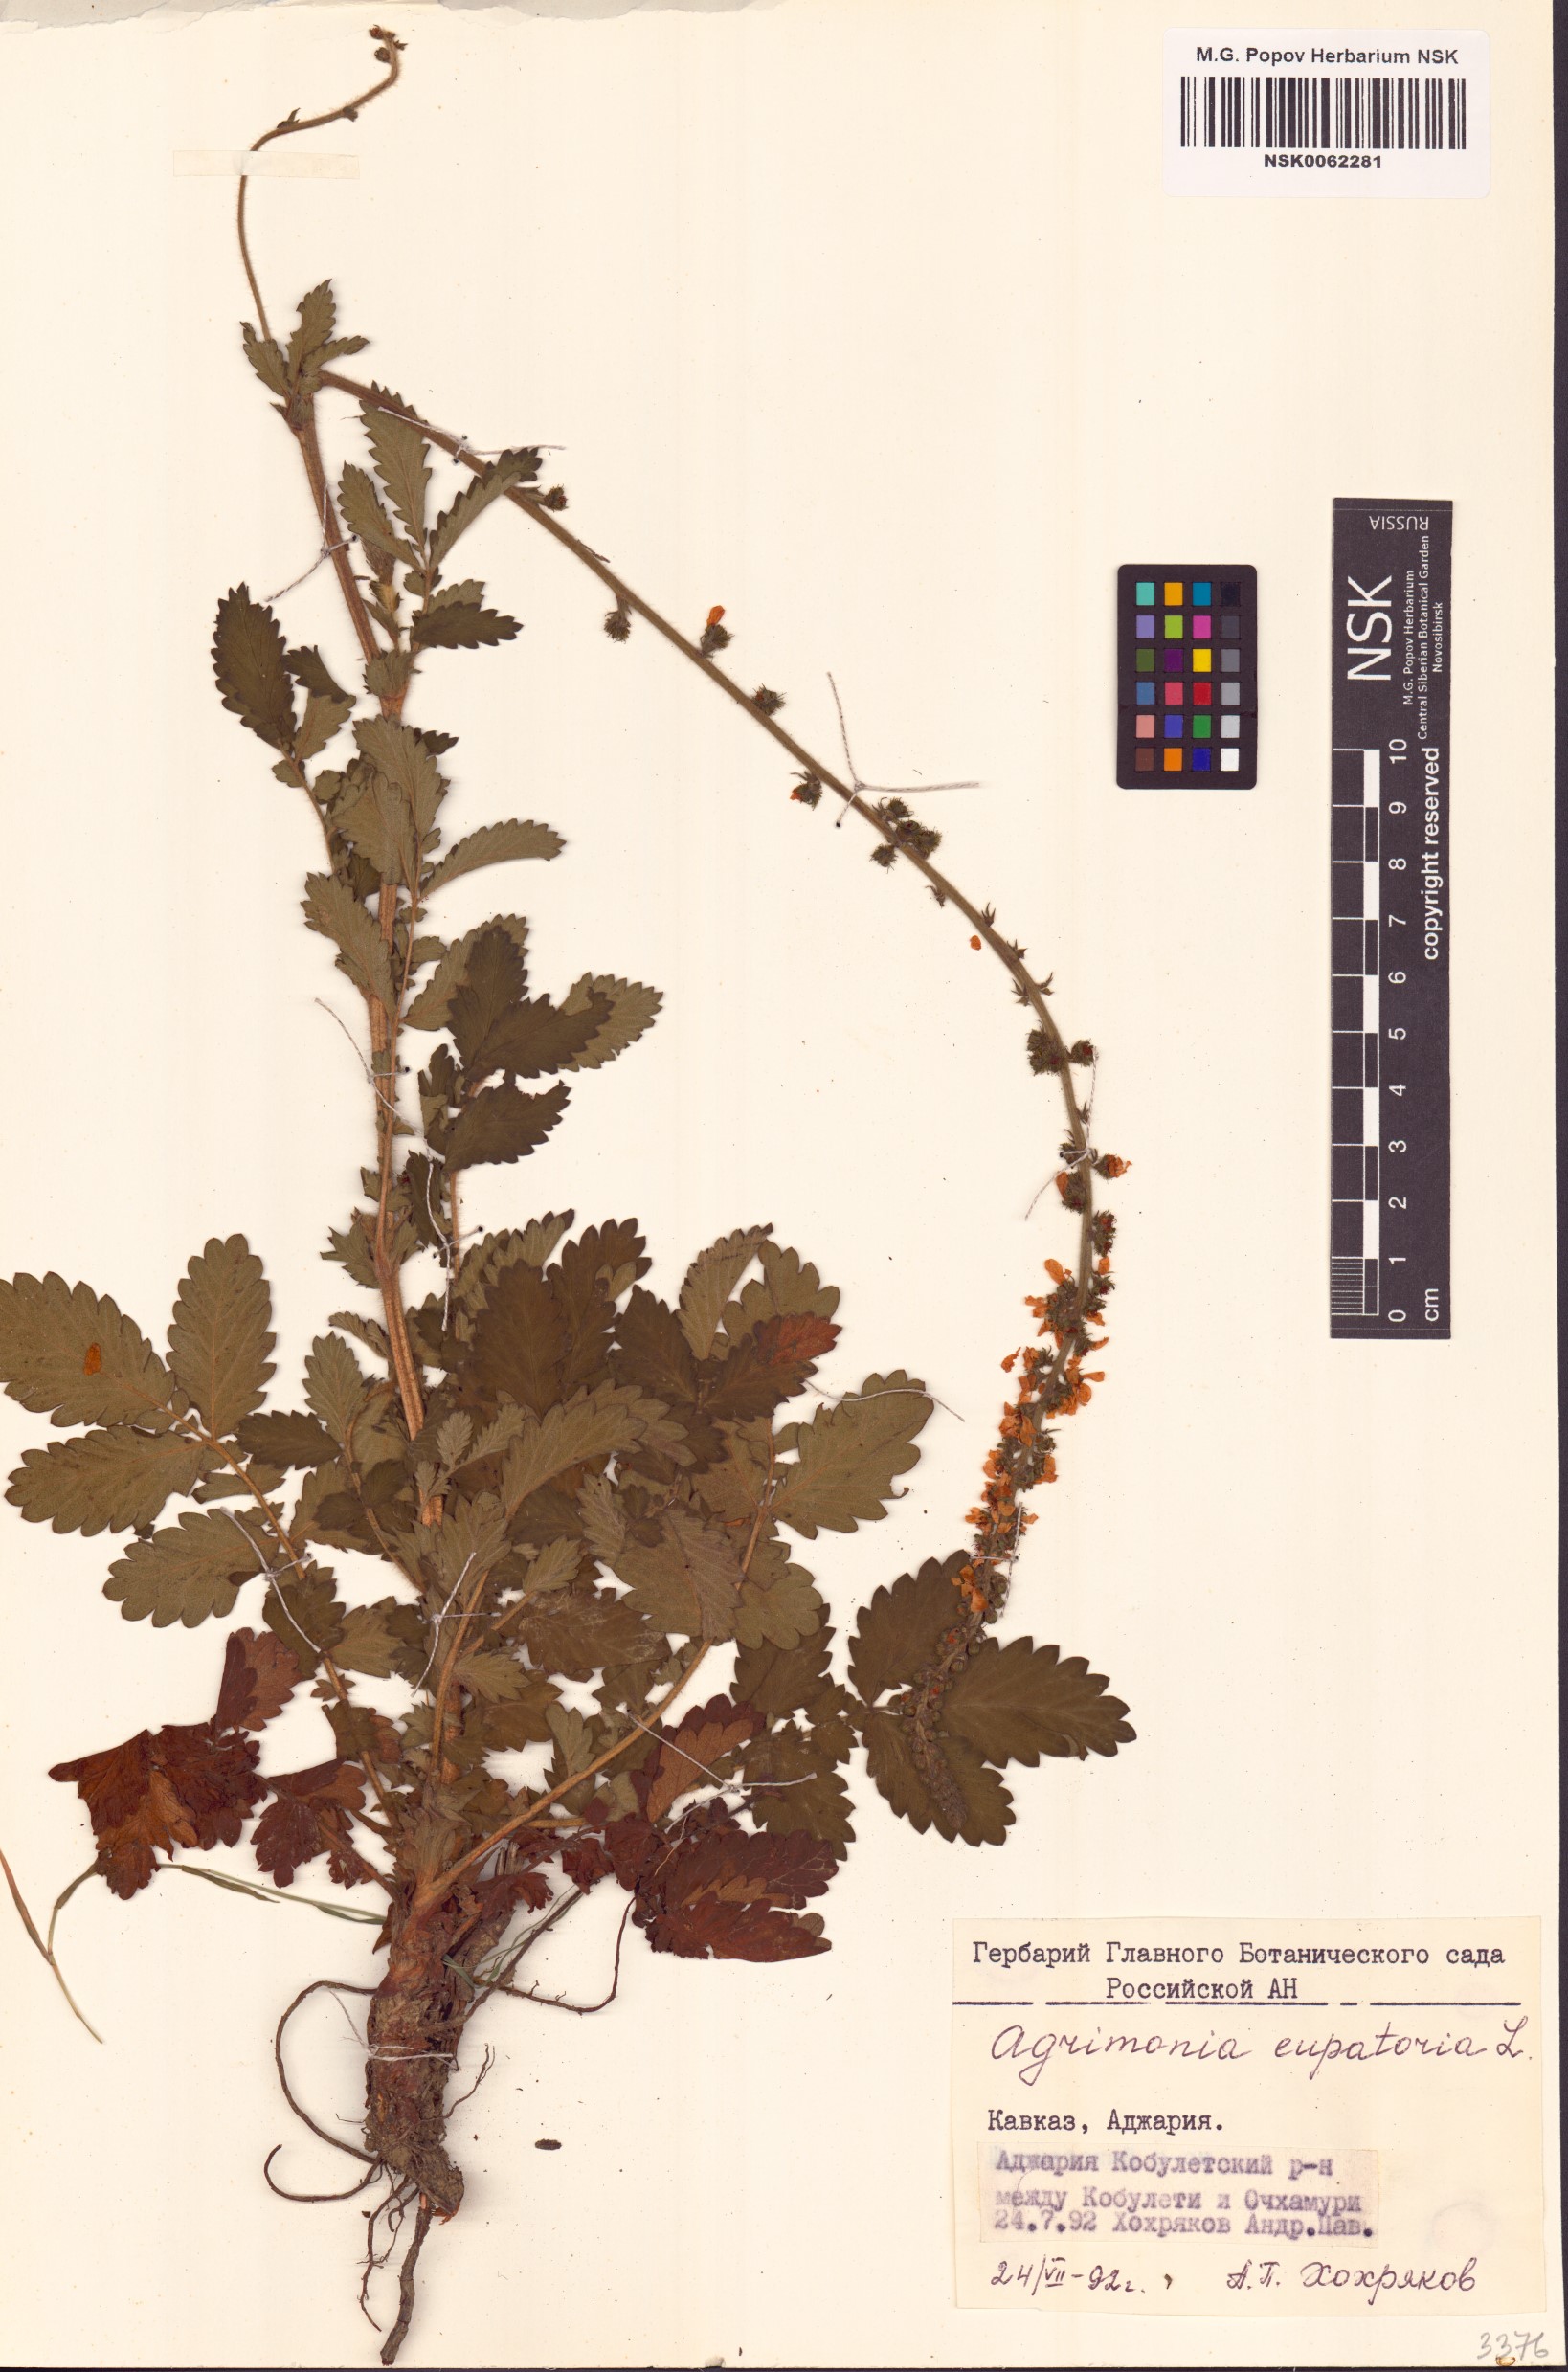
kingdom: Plantae
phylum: Tracheophyta
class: Magnoliopsida
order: Rosales
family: Rosaceae
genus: Agrimonia
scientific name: Agrimonia eupatoria
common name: Agrimony
